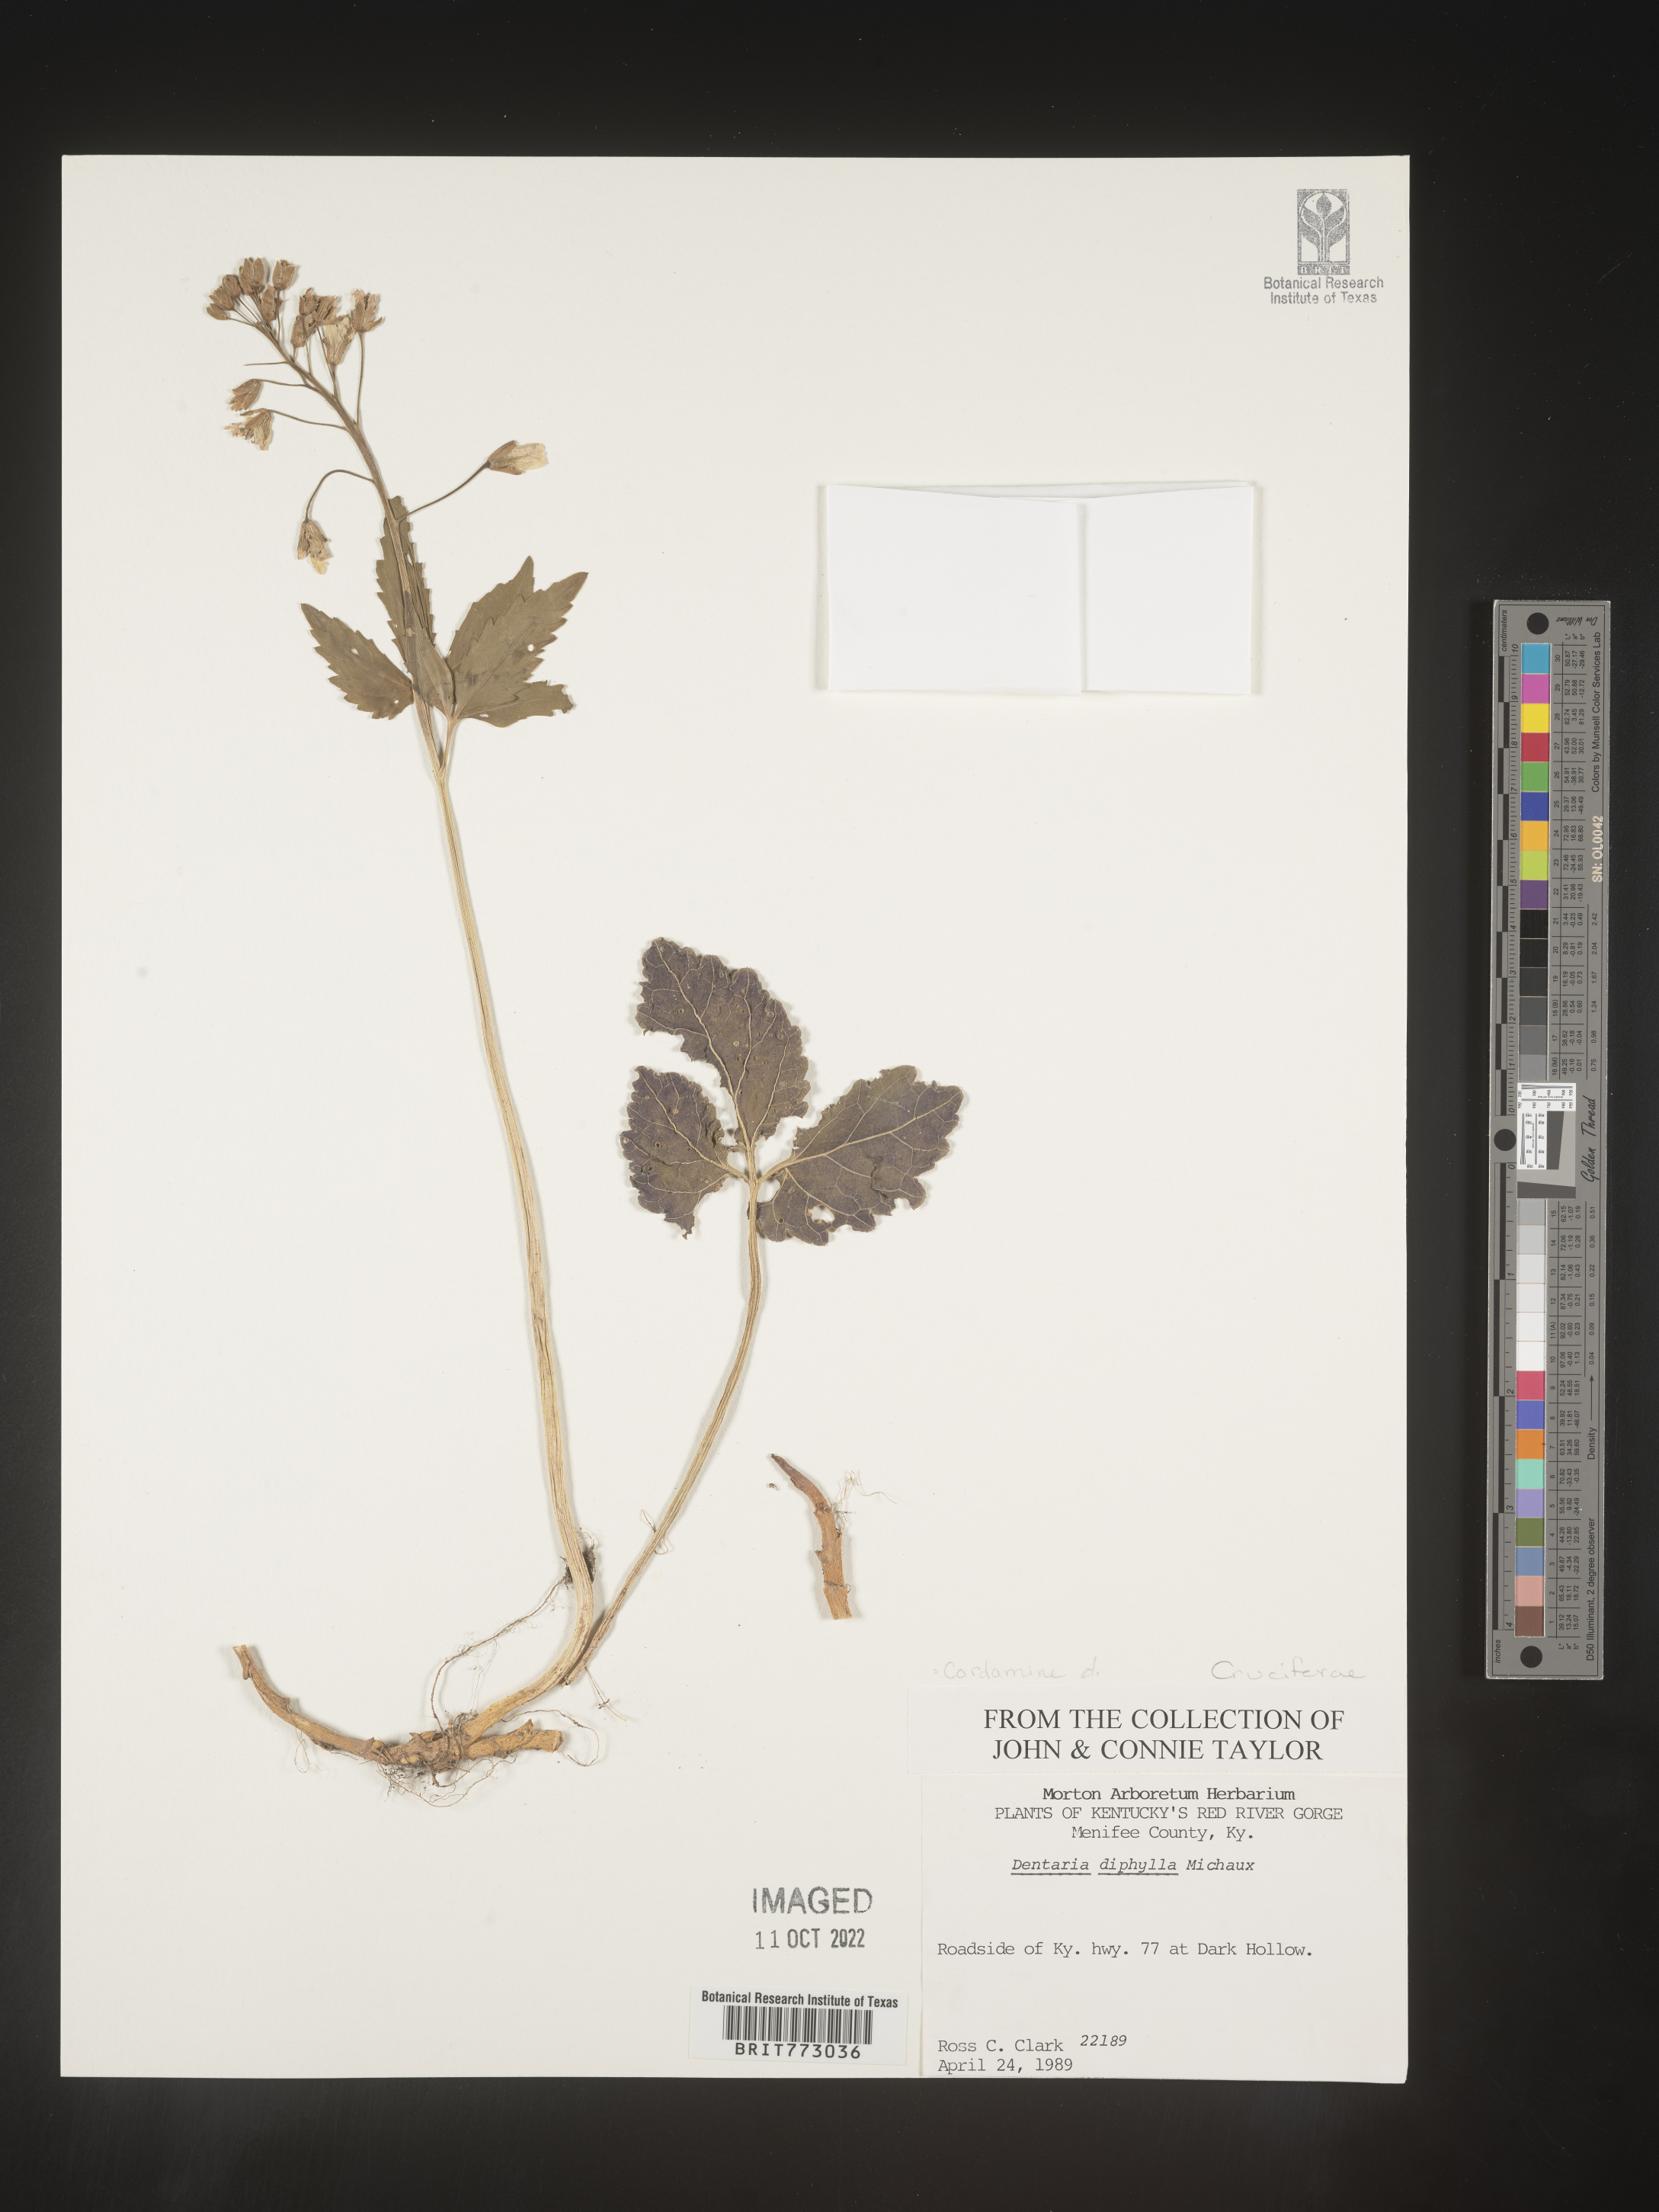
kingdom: Plantae
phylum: Tracheophyta
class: Magnoliopsida
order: Brassicales
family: Brassicaceae
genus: Cardamine
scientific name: Cardamine diphylla
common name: Broad-leaved toothwort
